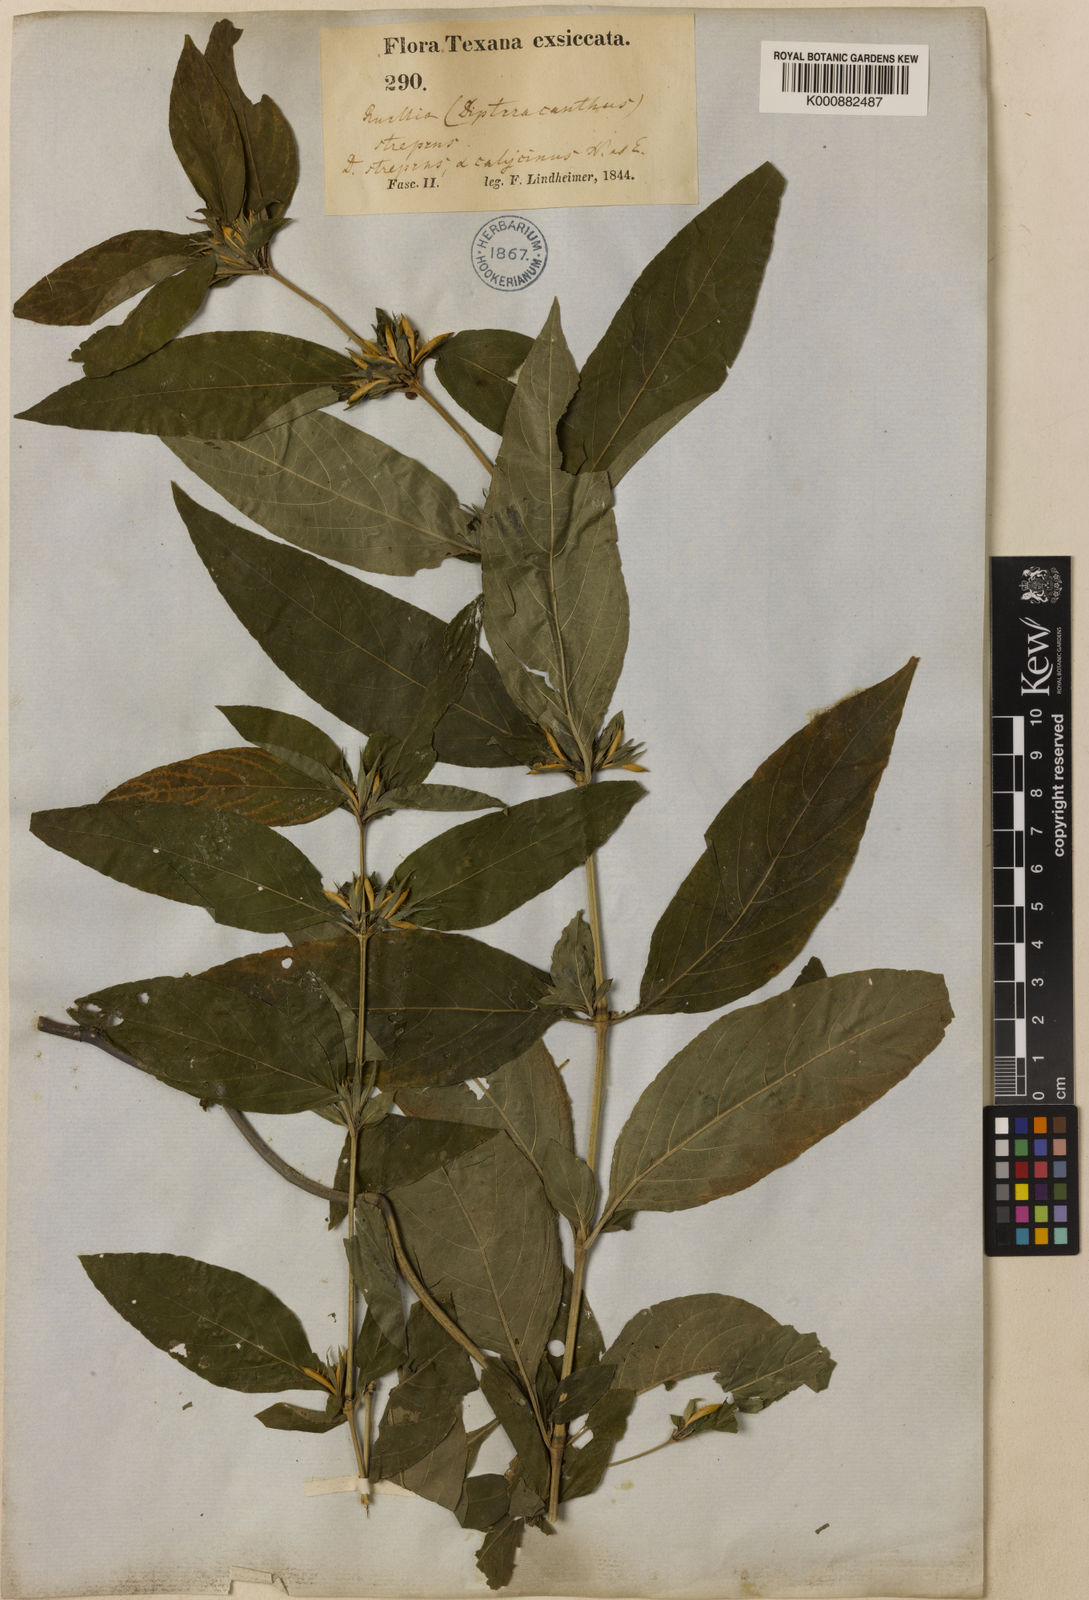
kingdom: Plantae
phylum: Tracheophyta
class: Magnoliopsida
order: Lamiales
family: Acanthaceae
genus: Ruellia
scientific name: Ruellia strepens
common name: Limestone wild petunia
